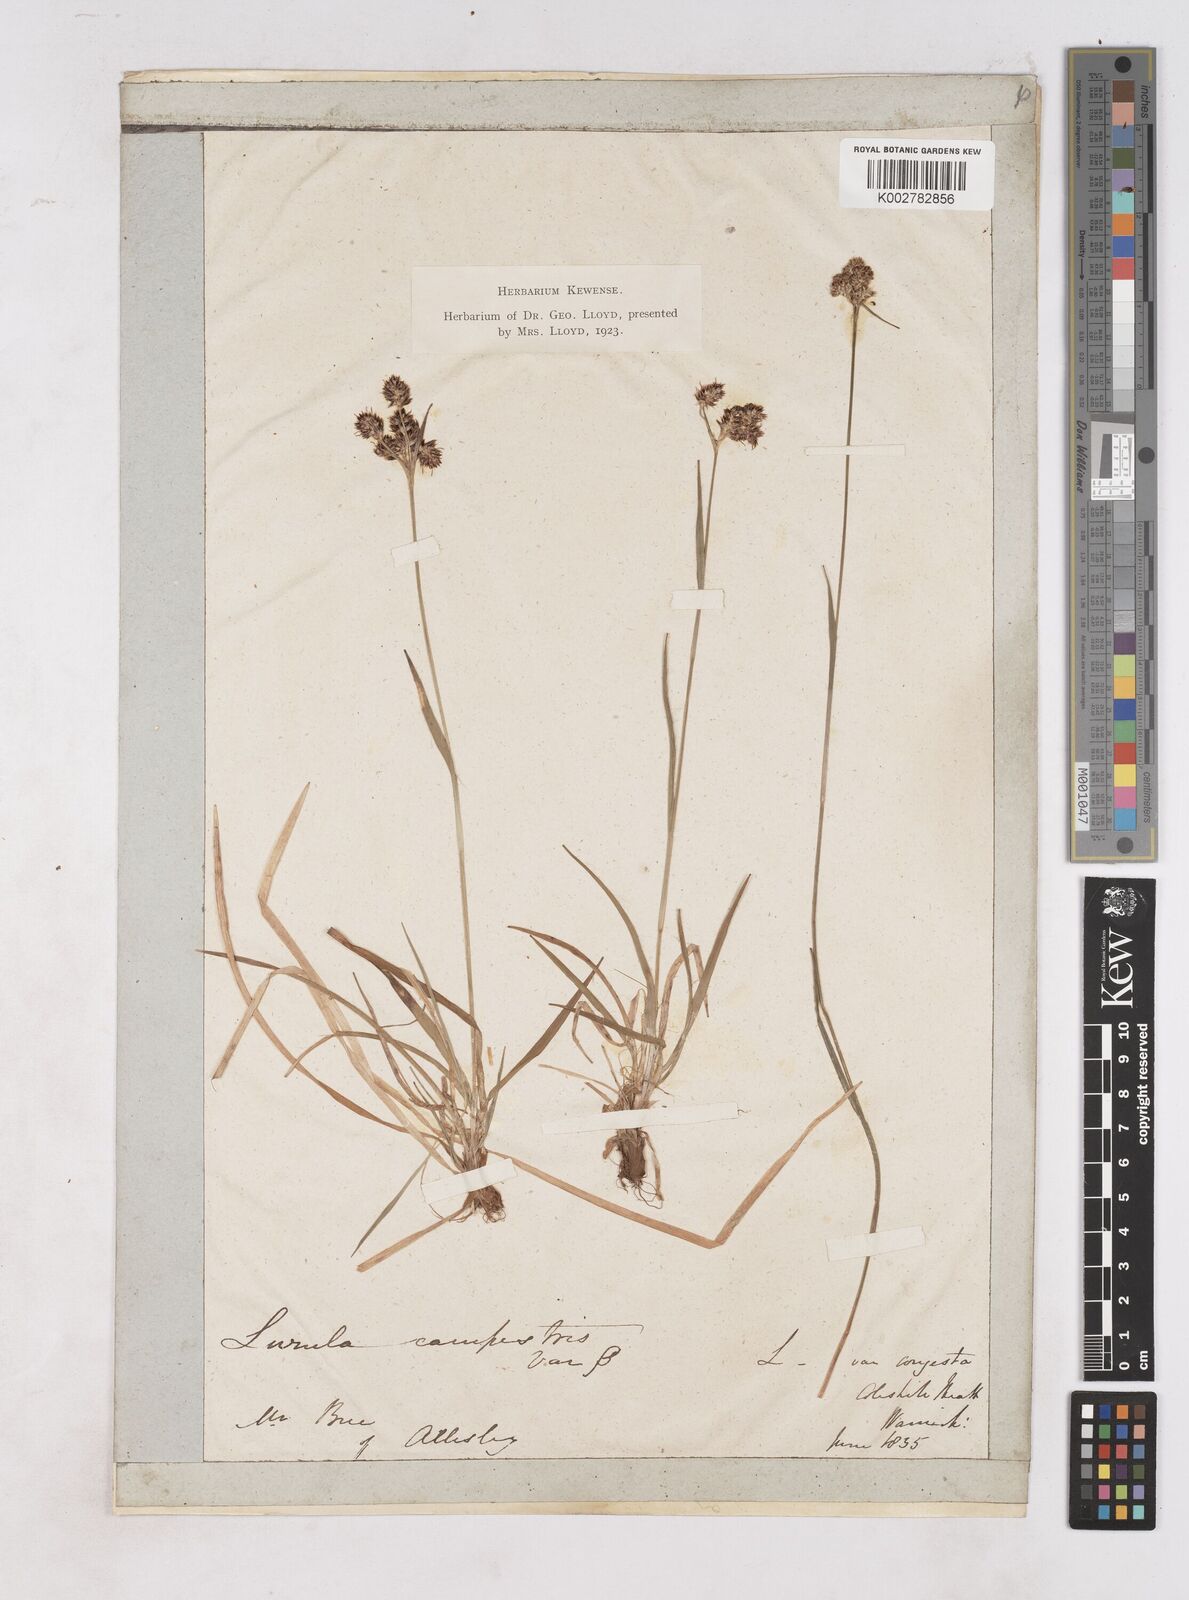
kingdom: Plantae
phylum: Tracheophyta
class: Liliopsida
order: Poales
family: Juncaceae
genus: Luzula
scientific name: Luzula campestris
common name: Field wood-rush
